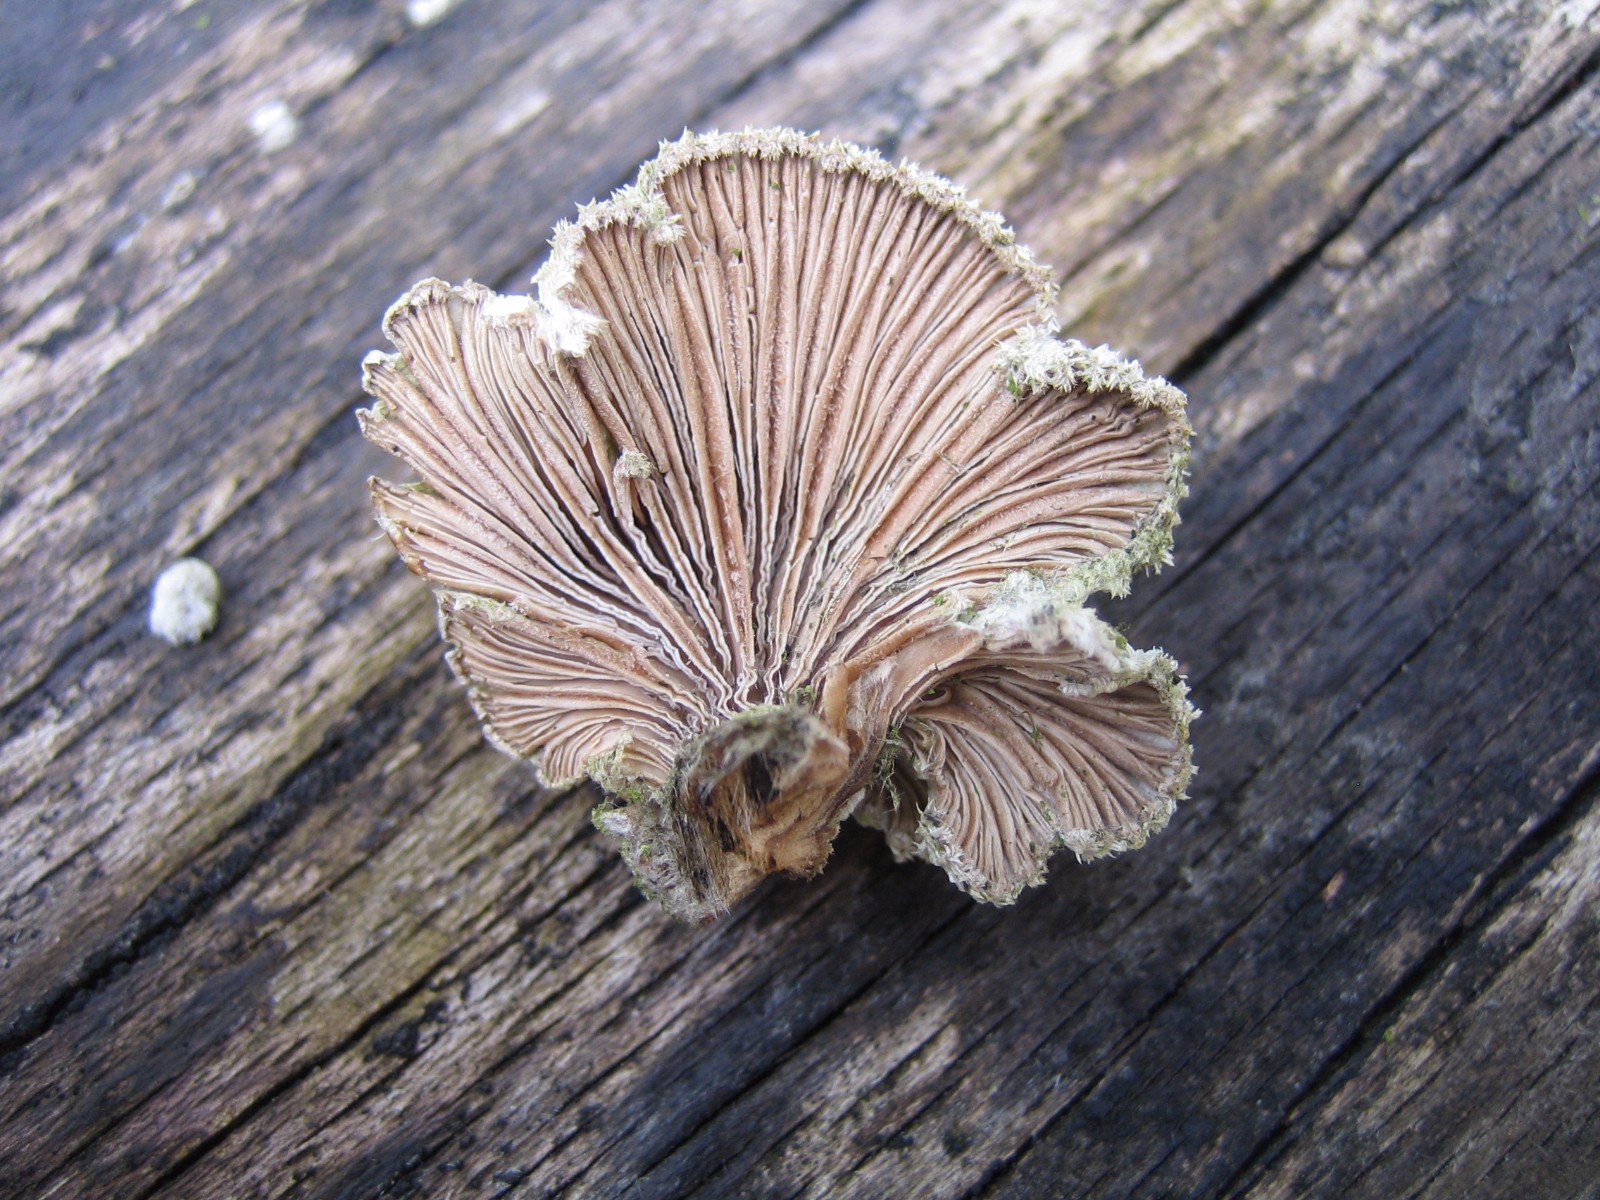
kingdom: Fungi
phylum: Basidiomycota
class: Agaricomycetes
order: Agaricales
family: Schizophyllaceae
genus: Schizophyllum
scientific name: Schizophyllum commune
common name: kløvblad
